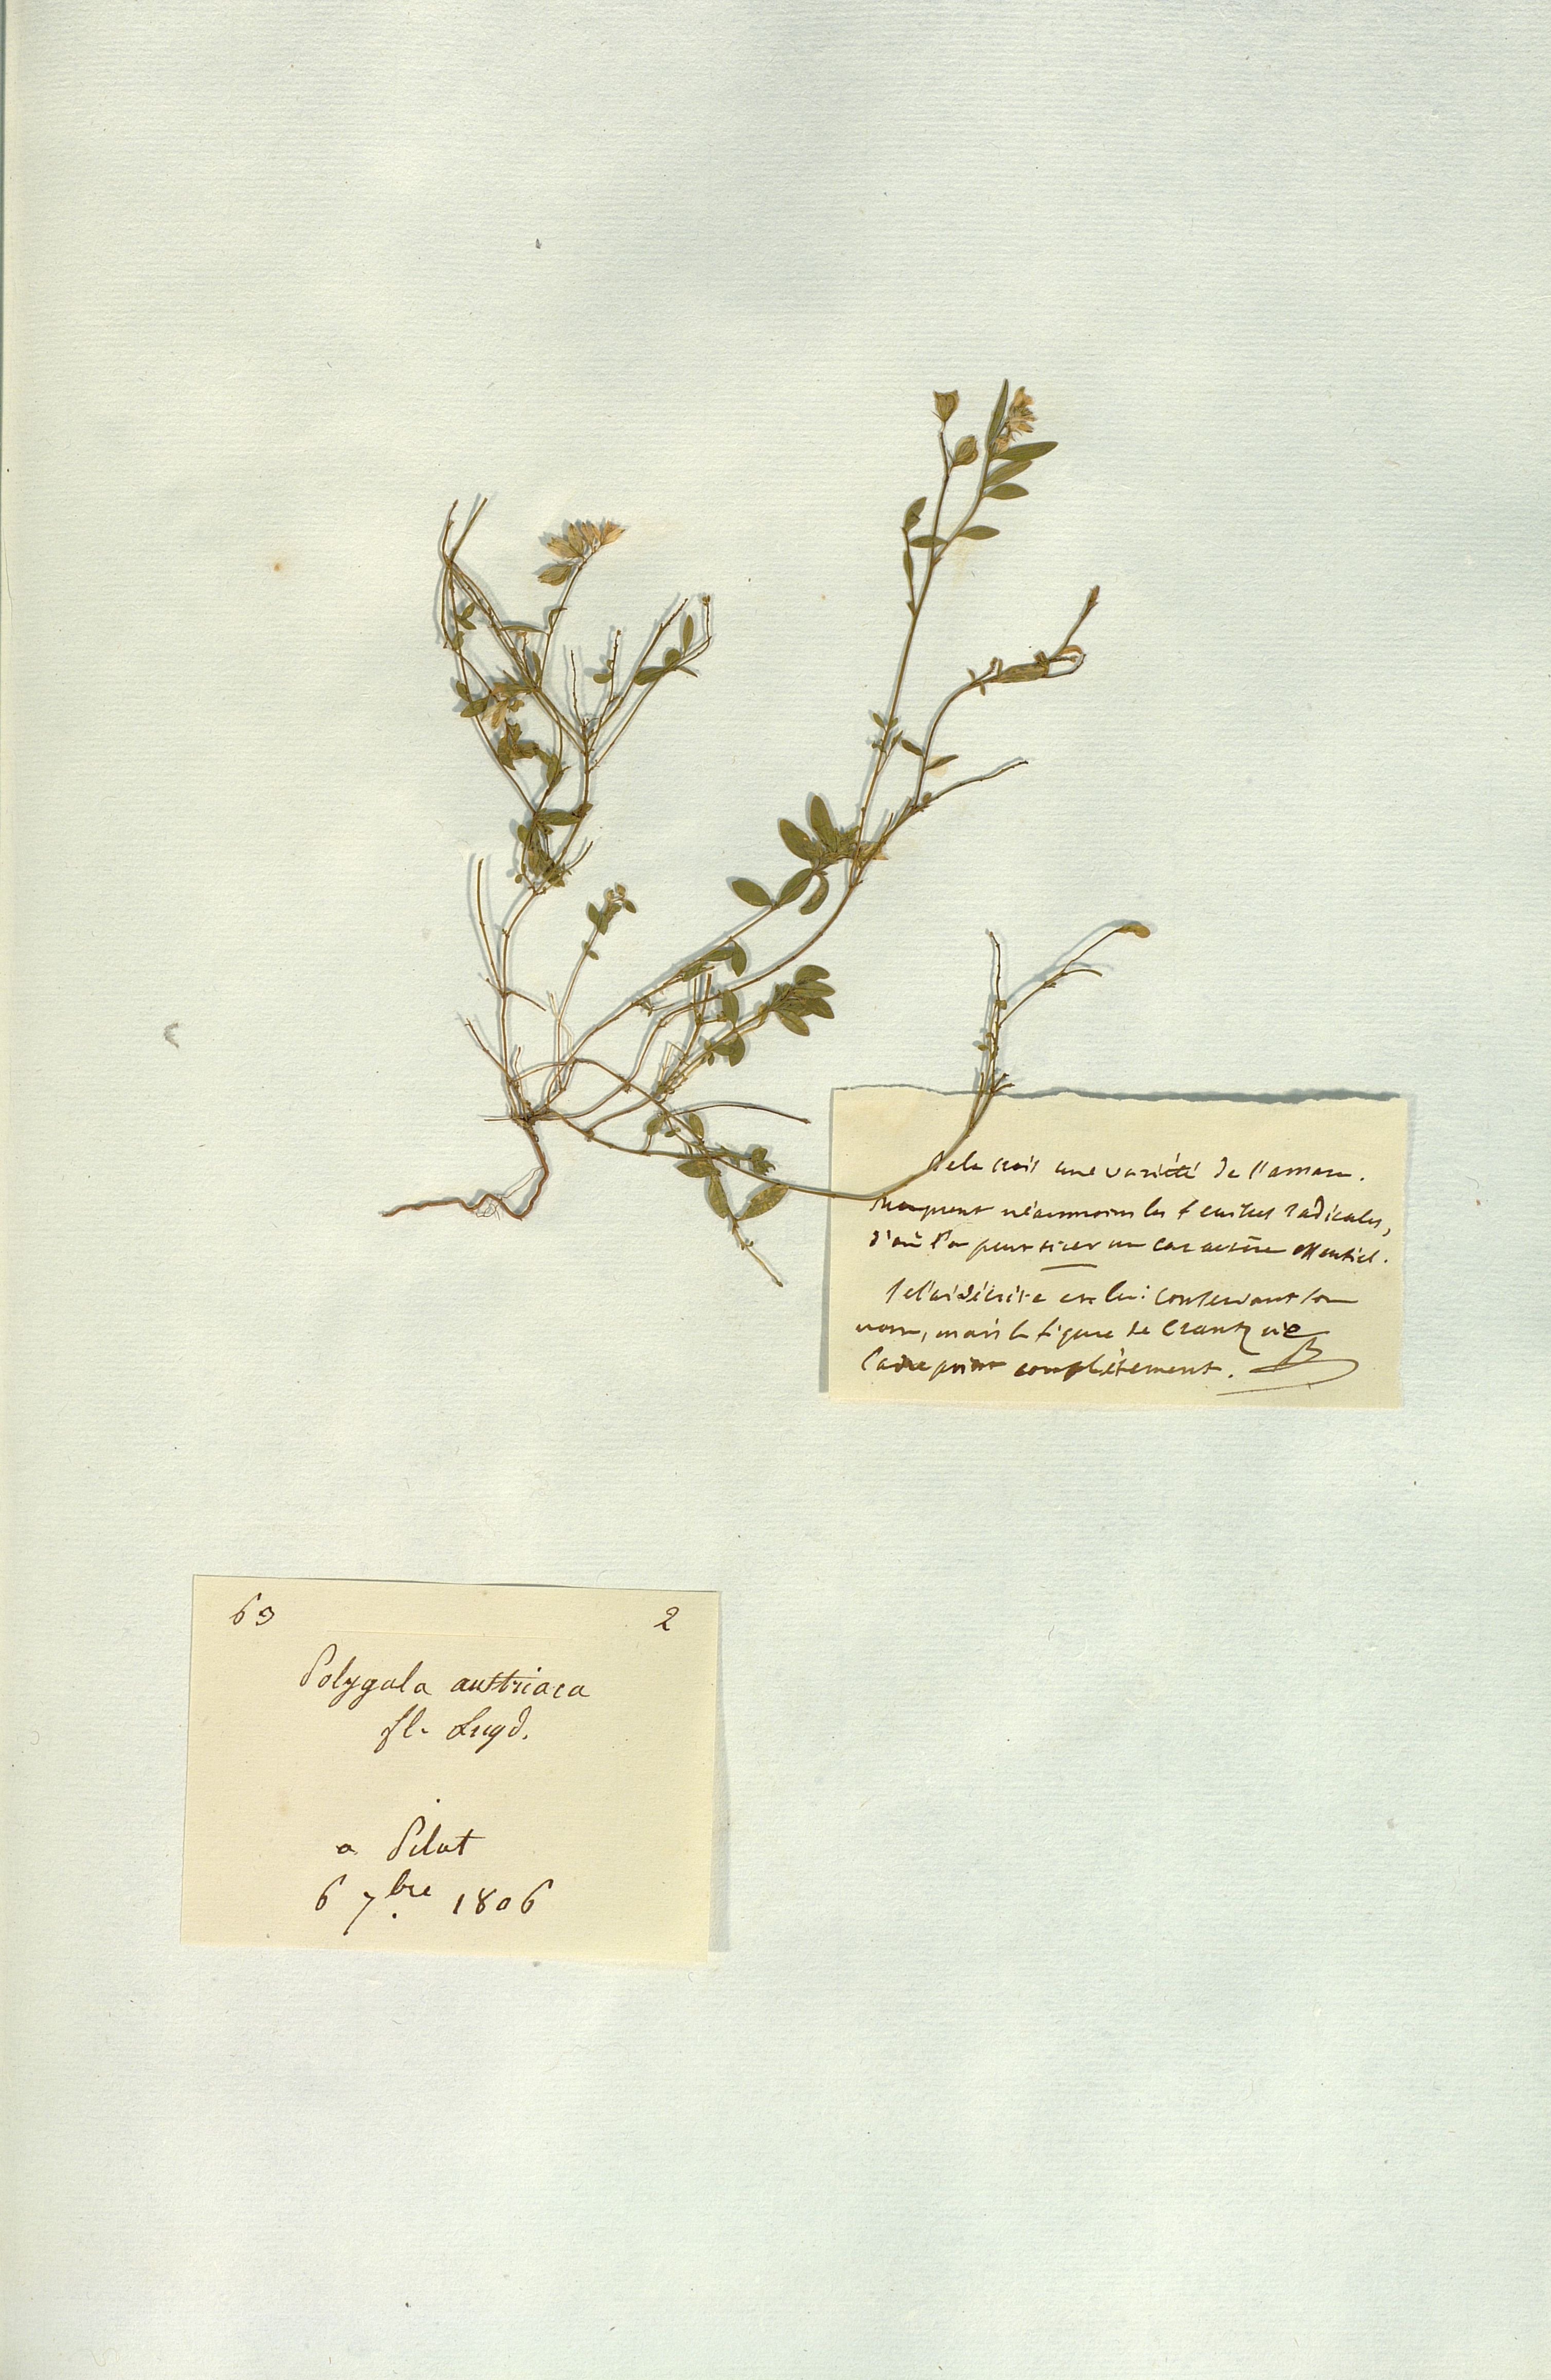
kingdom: Plantae
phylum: Tracheophyta
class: Magnoliopsida
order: Fabales
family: Polygalaceae
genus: Polygala
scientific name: Polygala amara
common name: Milkwort
